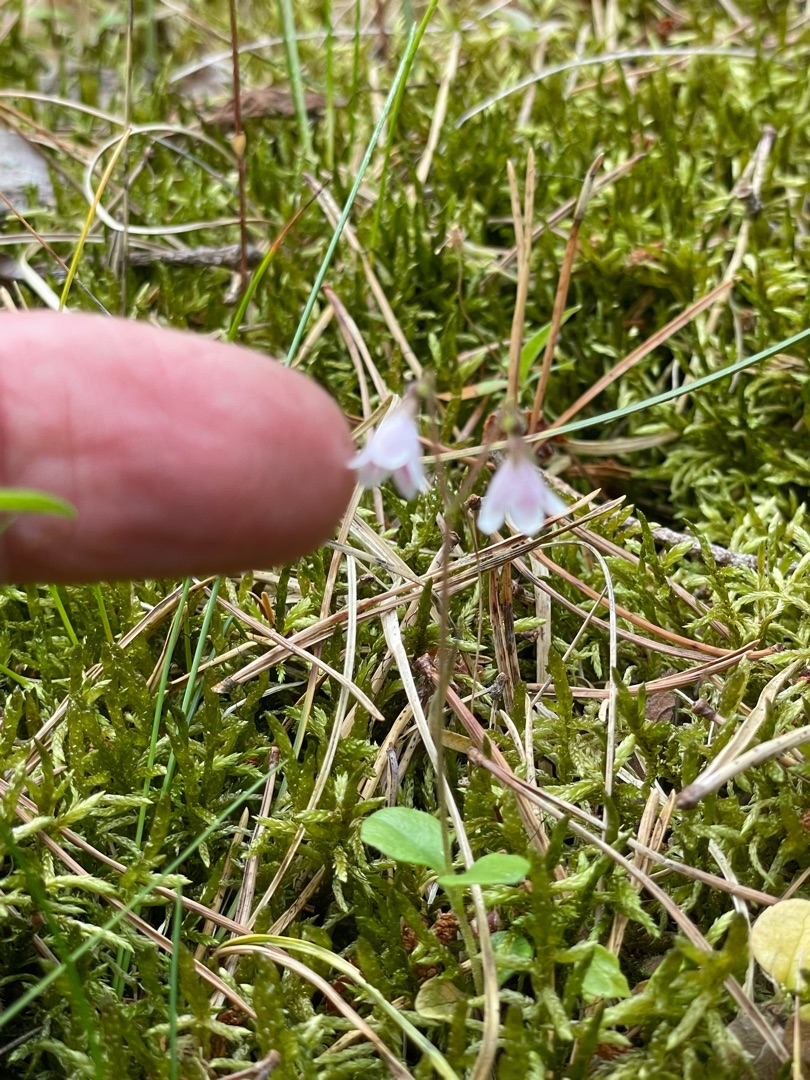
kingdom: Plantae
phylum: Tracheophyta
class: Magnoliopsida
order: Dipsacales
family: Caprifoliaceae
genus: Linnaea
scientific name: Linnaea borealis
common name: Linnæa
